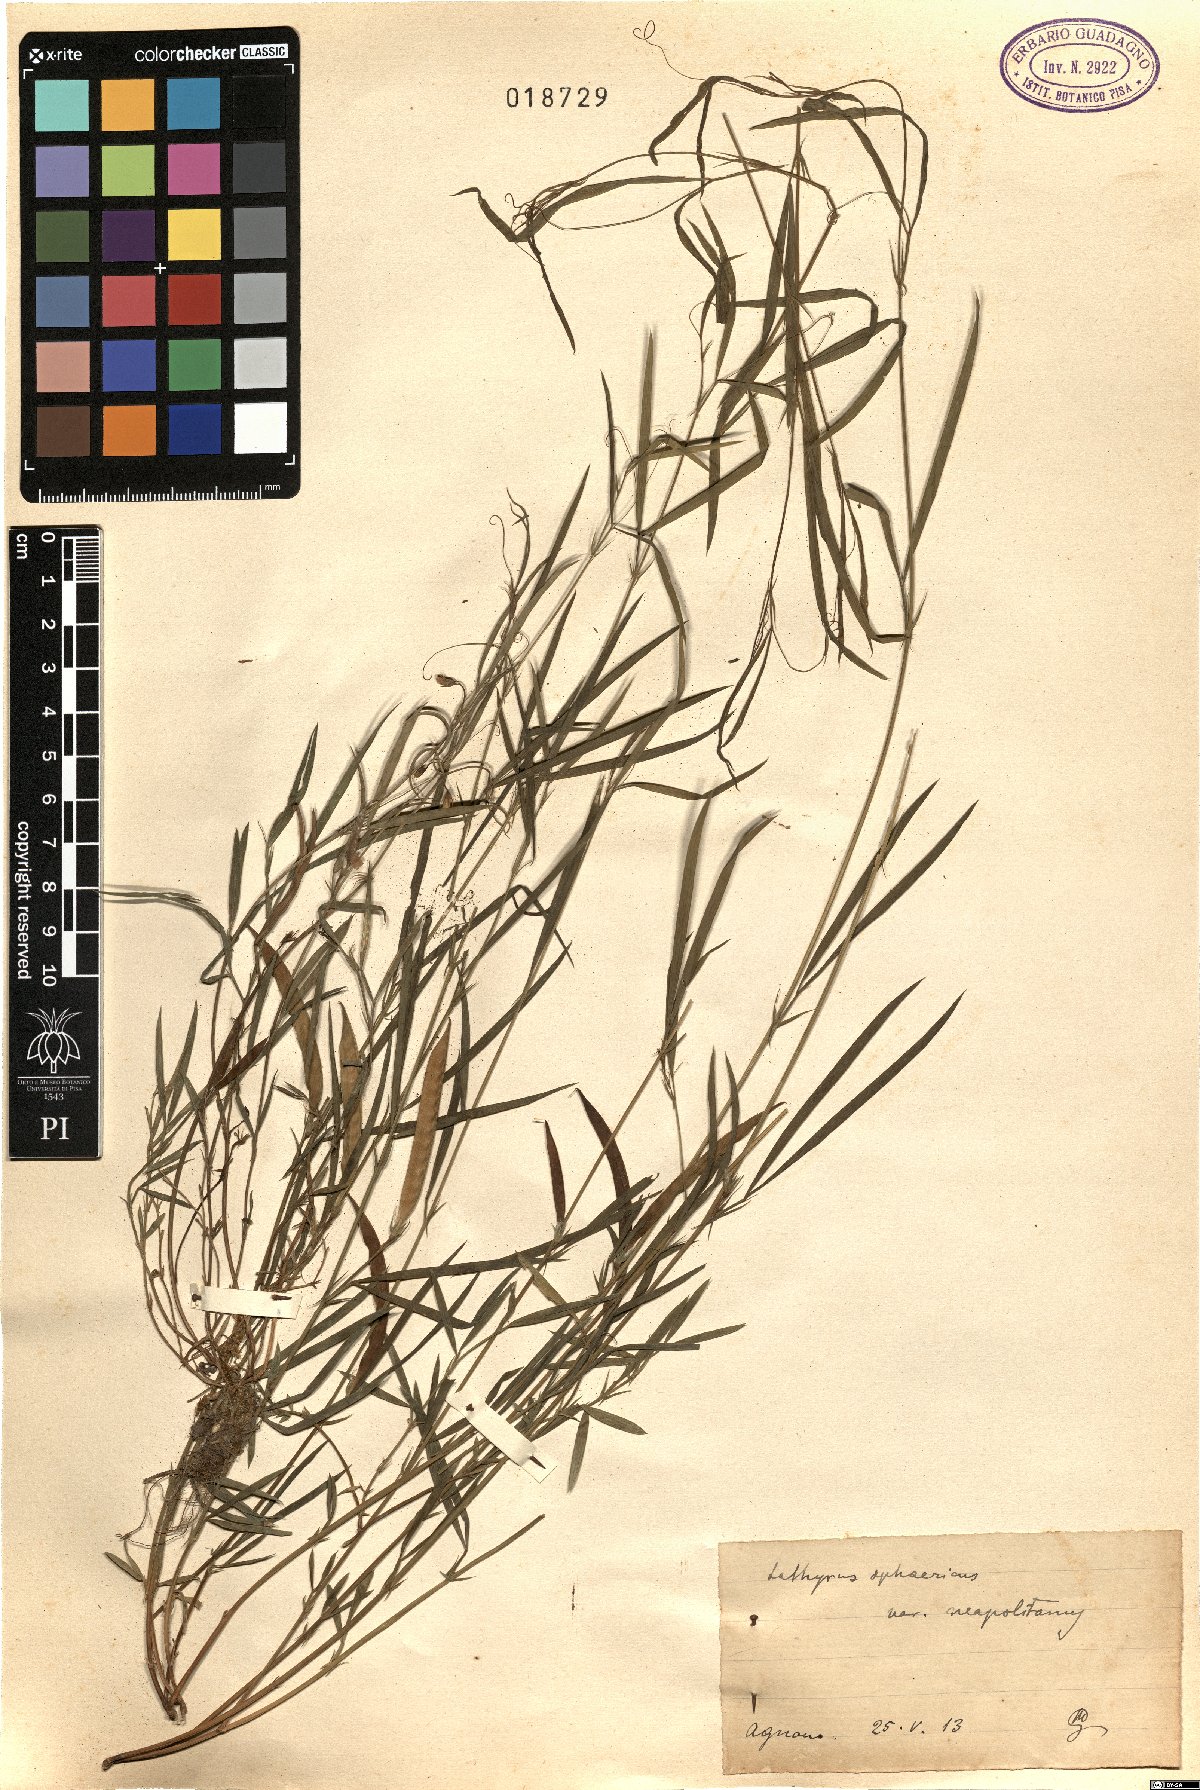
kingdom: Plantae
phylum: Tracheophyta
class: Magnoliopsida
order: Fabales
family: Fabaceae
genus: Lathyrus
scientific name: Lathyrus sphaericus
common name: Grass pea
